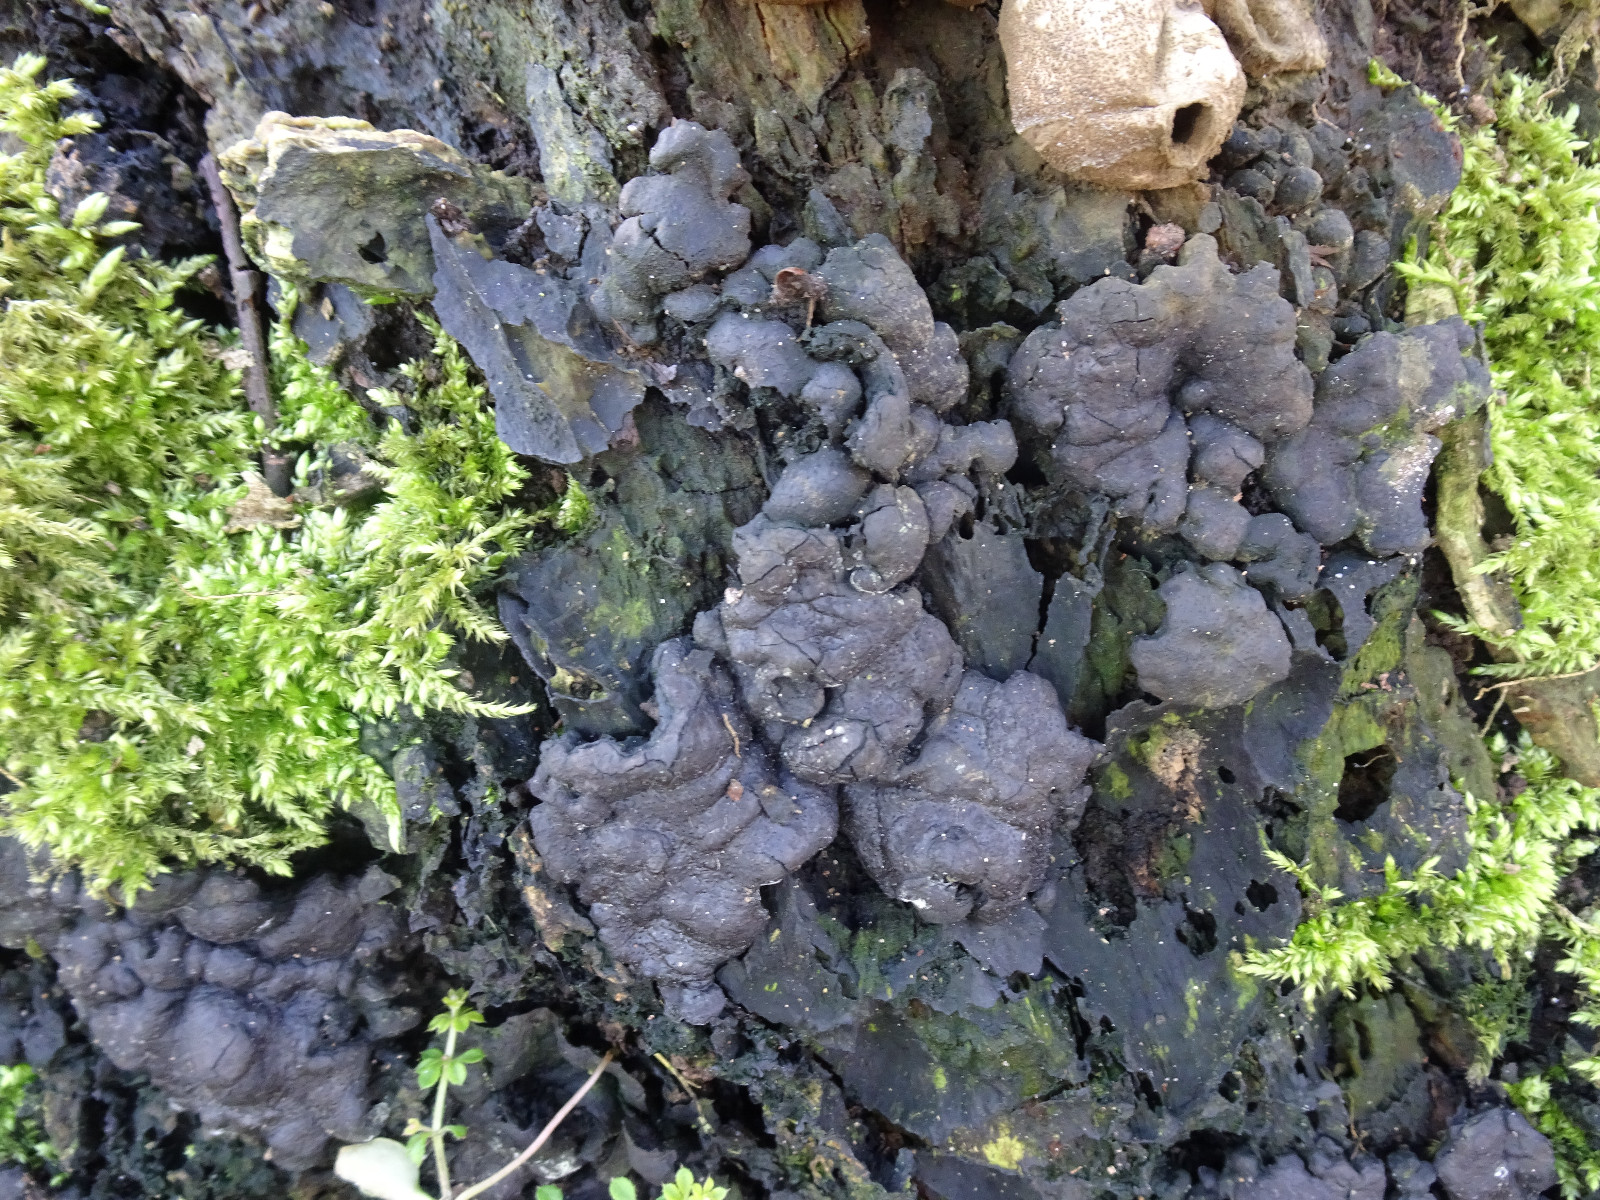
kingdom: Fungi
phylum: Ascomycota
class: Sordariomycetes
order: Xylariales
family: Xylariaceae
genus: Kretzschmaria
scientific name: Kretzschmaria deusta
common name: stor kulsvamp
